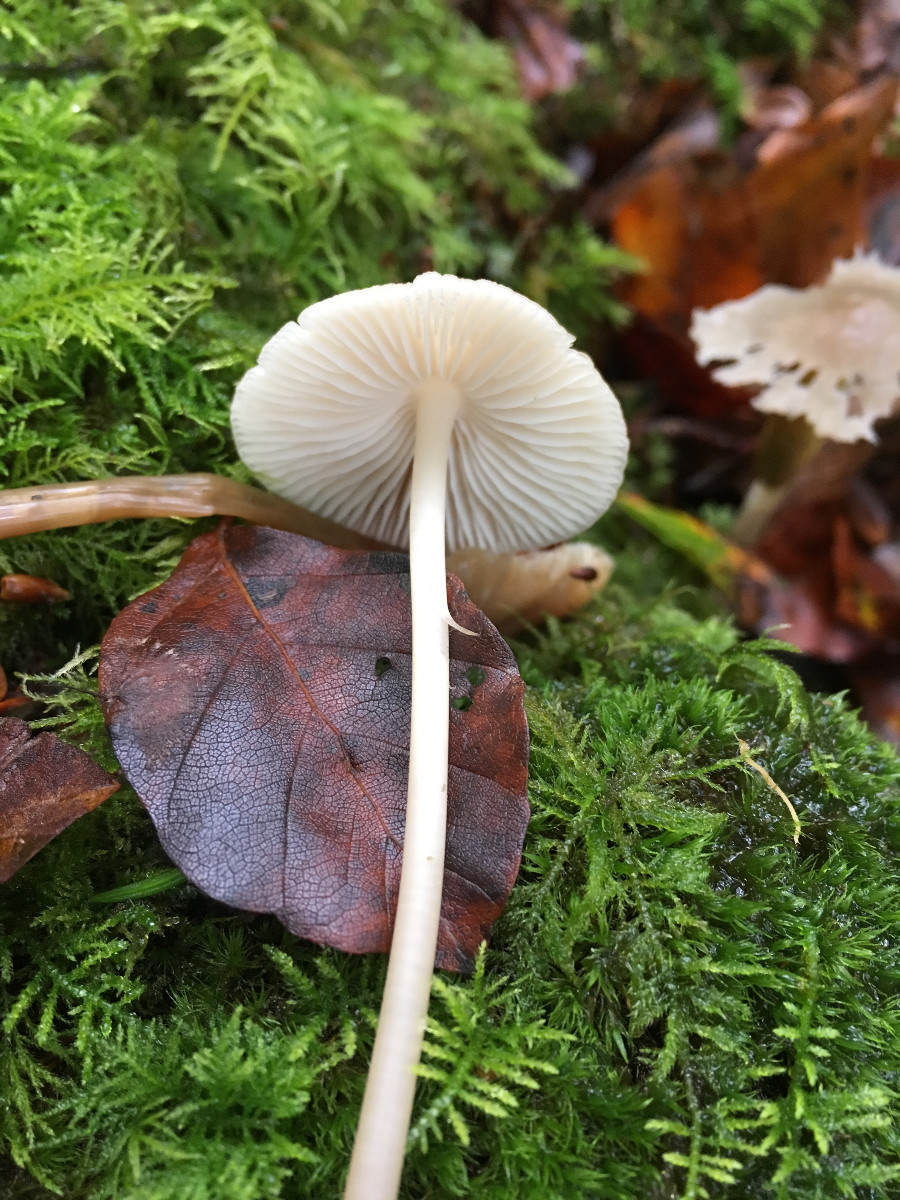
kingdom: Fungi
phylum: Basidiomycota
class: Agaricomycetes
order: Agaricales
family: Mycenaceae
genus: Mycena
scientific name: Mycena galericulata
